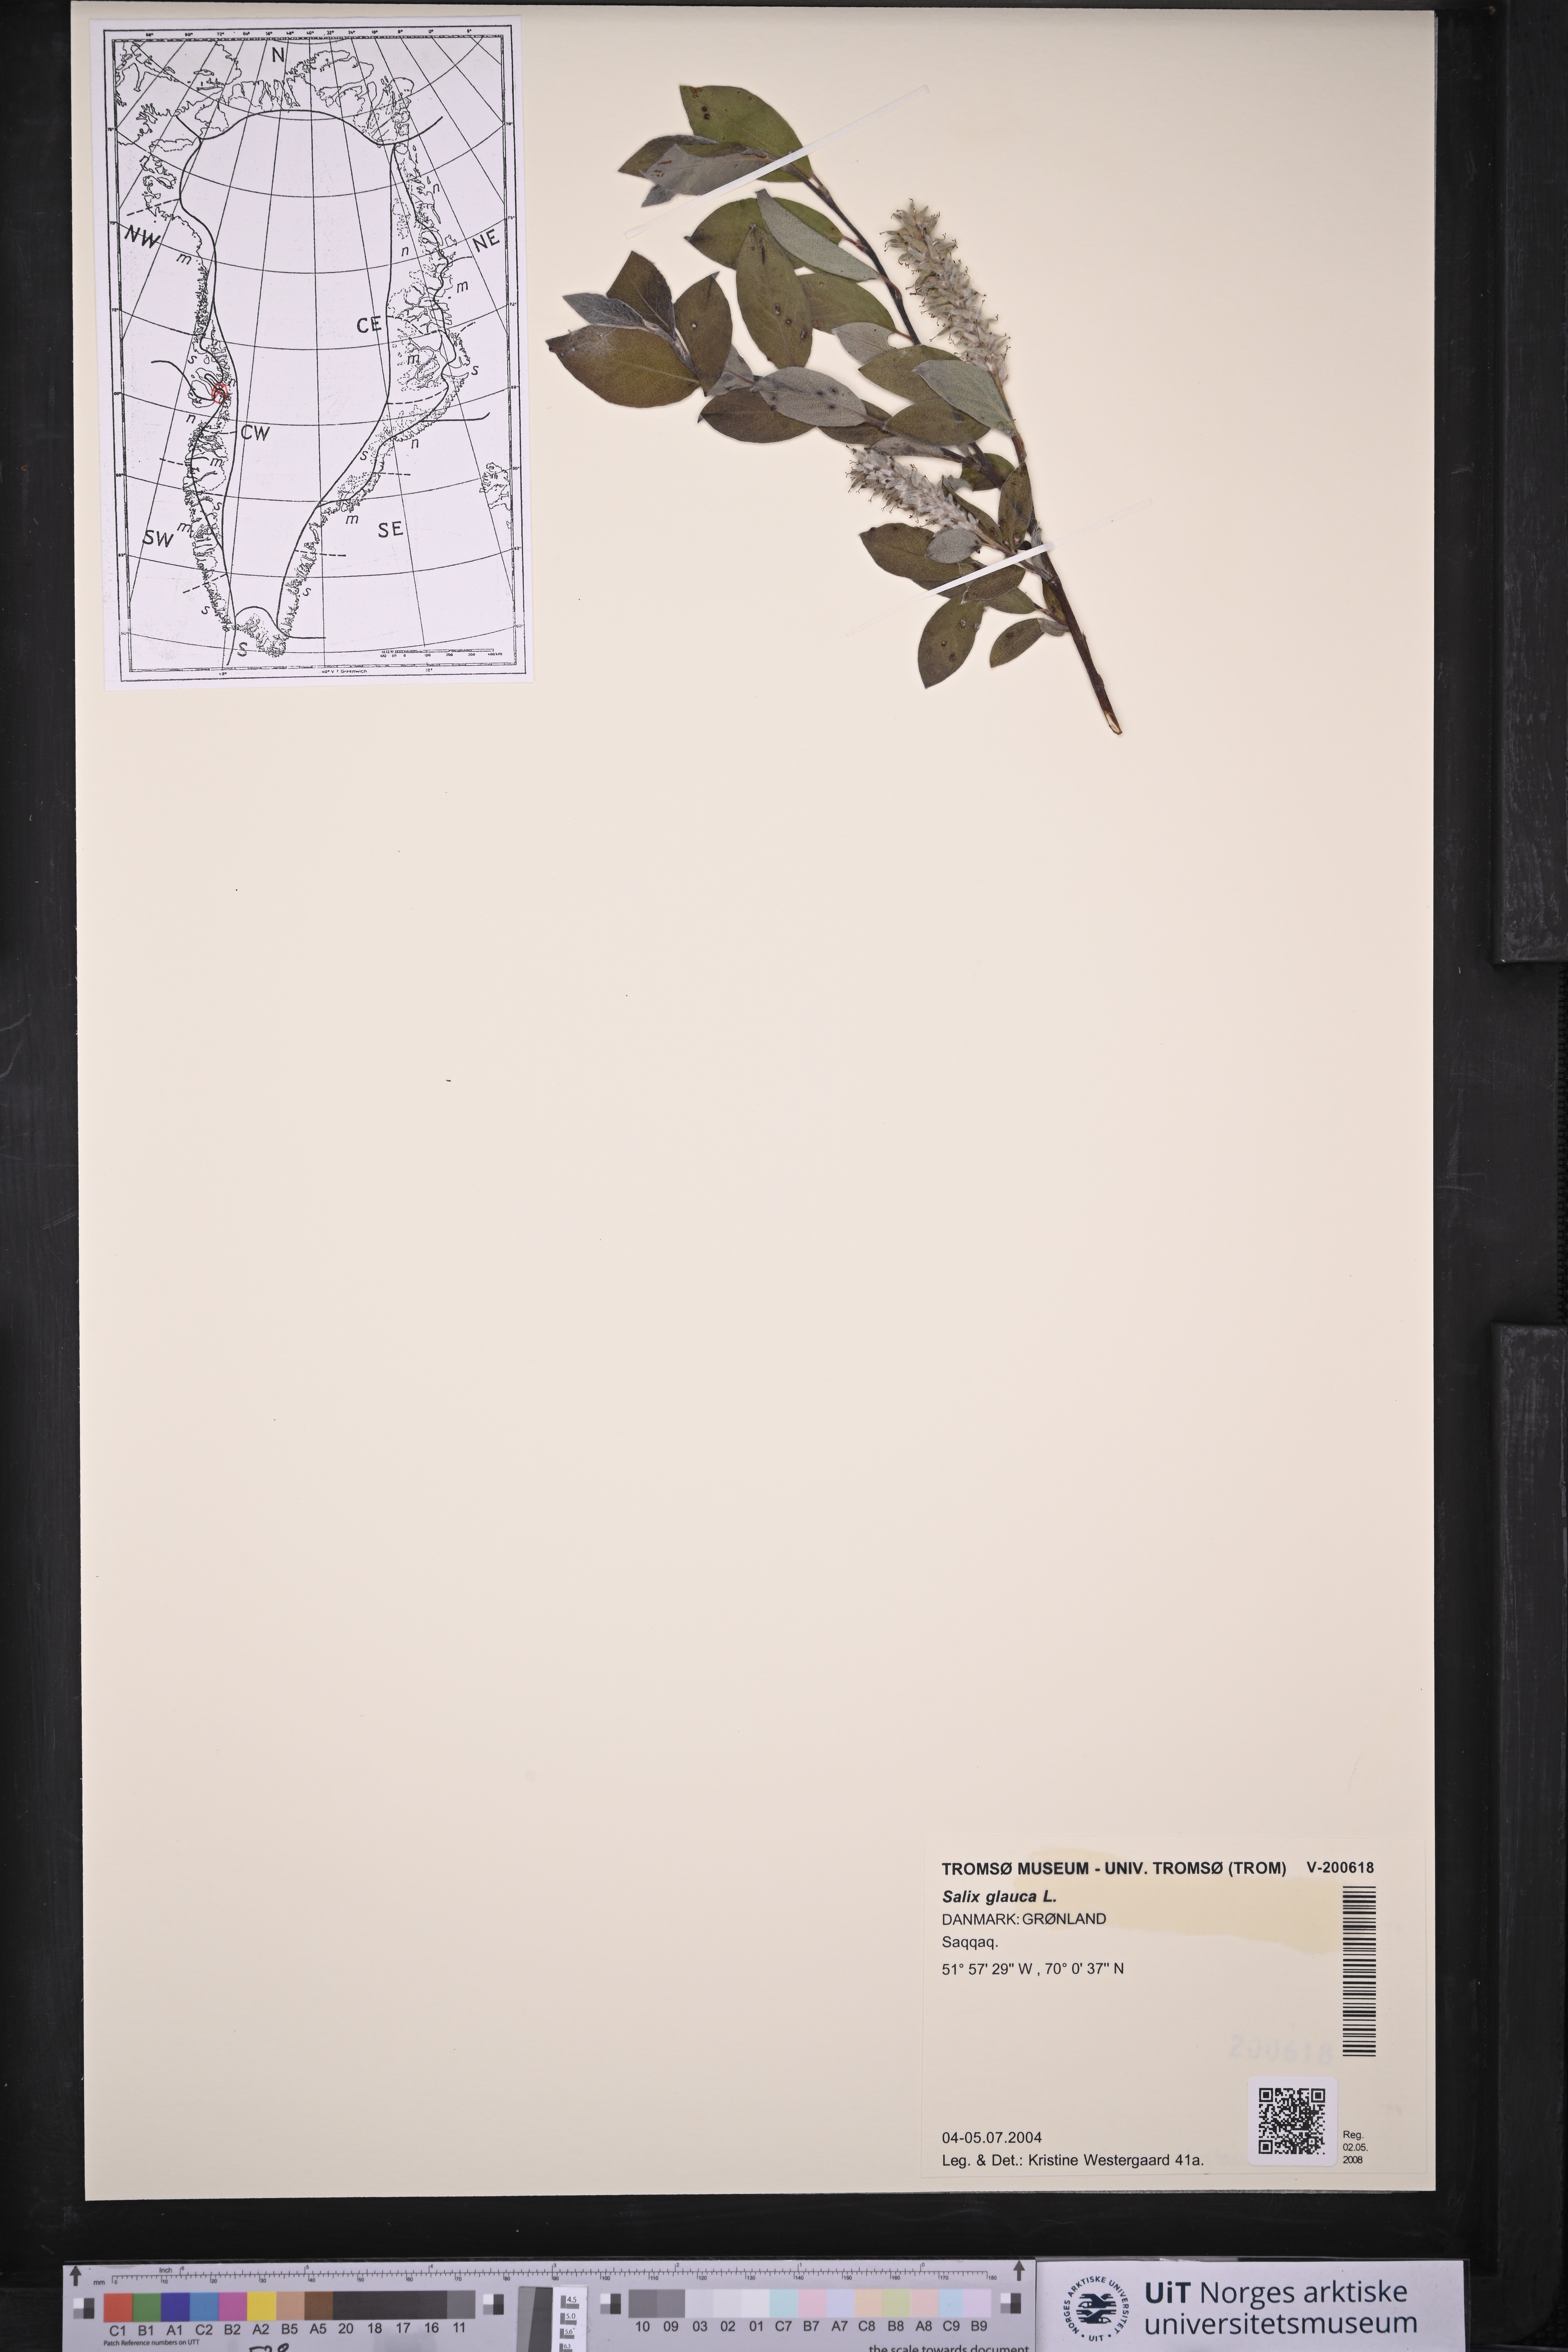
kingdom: Plantae
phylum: Tracheophyta
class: Magnoliopsida
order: Malpighiales
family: Salicaceae
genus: Salix
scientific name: Salix glauca
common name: Glaucous willow
